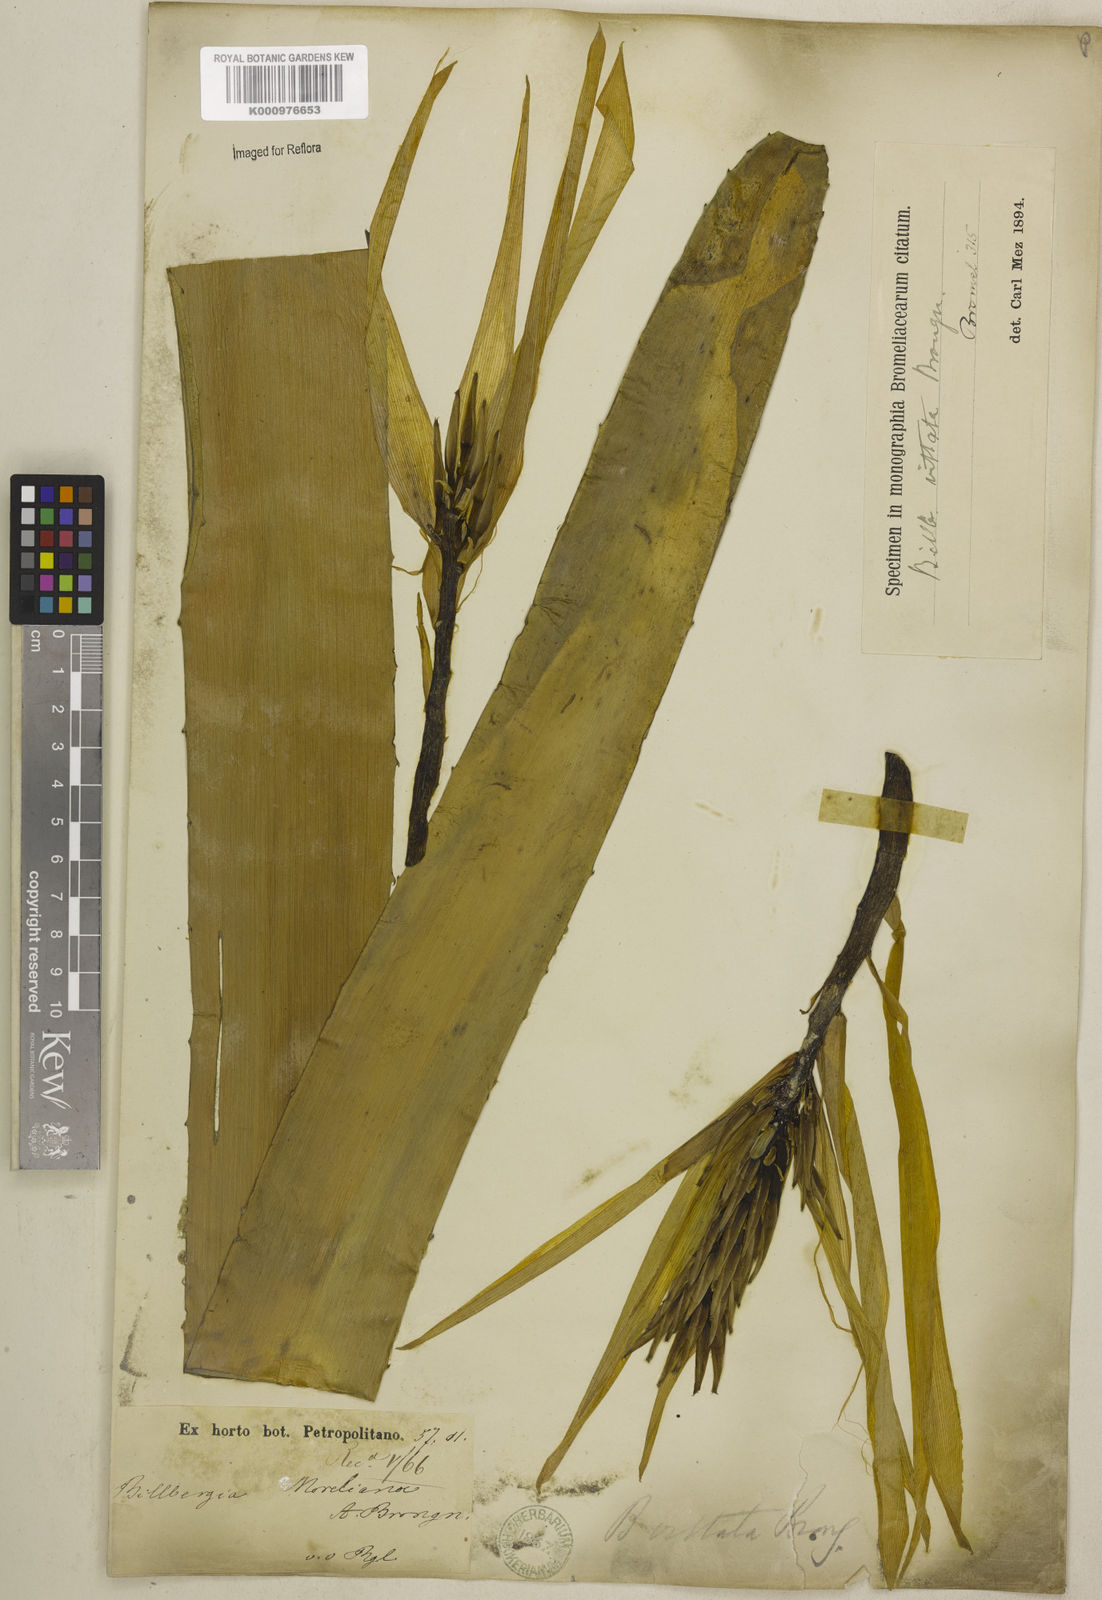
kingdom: Plantae
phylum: Tracheophyta
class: Liliopsida
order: Poales
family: Bromeliaceae
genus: Billbergia
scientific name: Billbergia vittata
